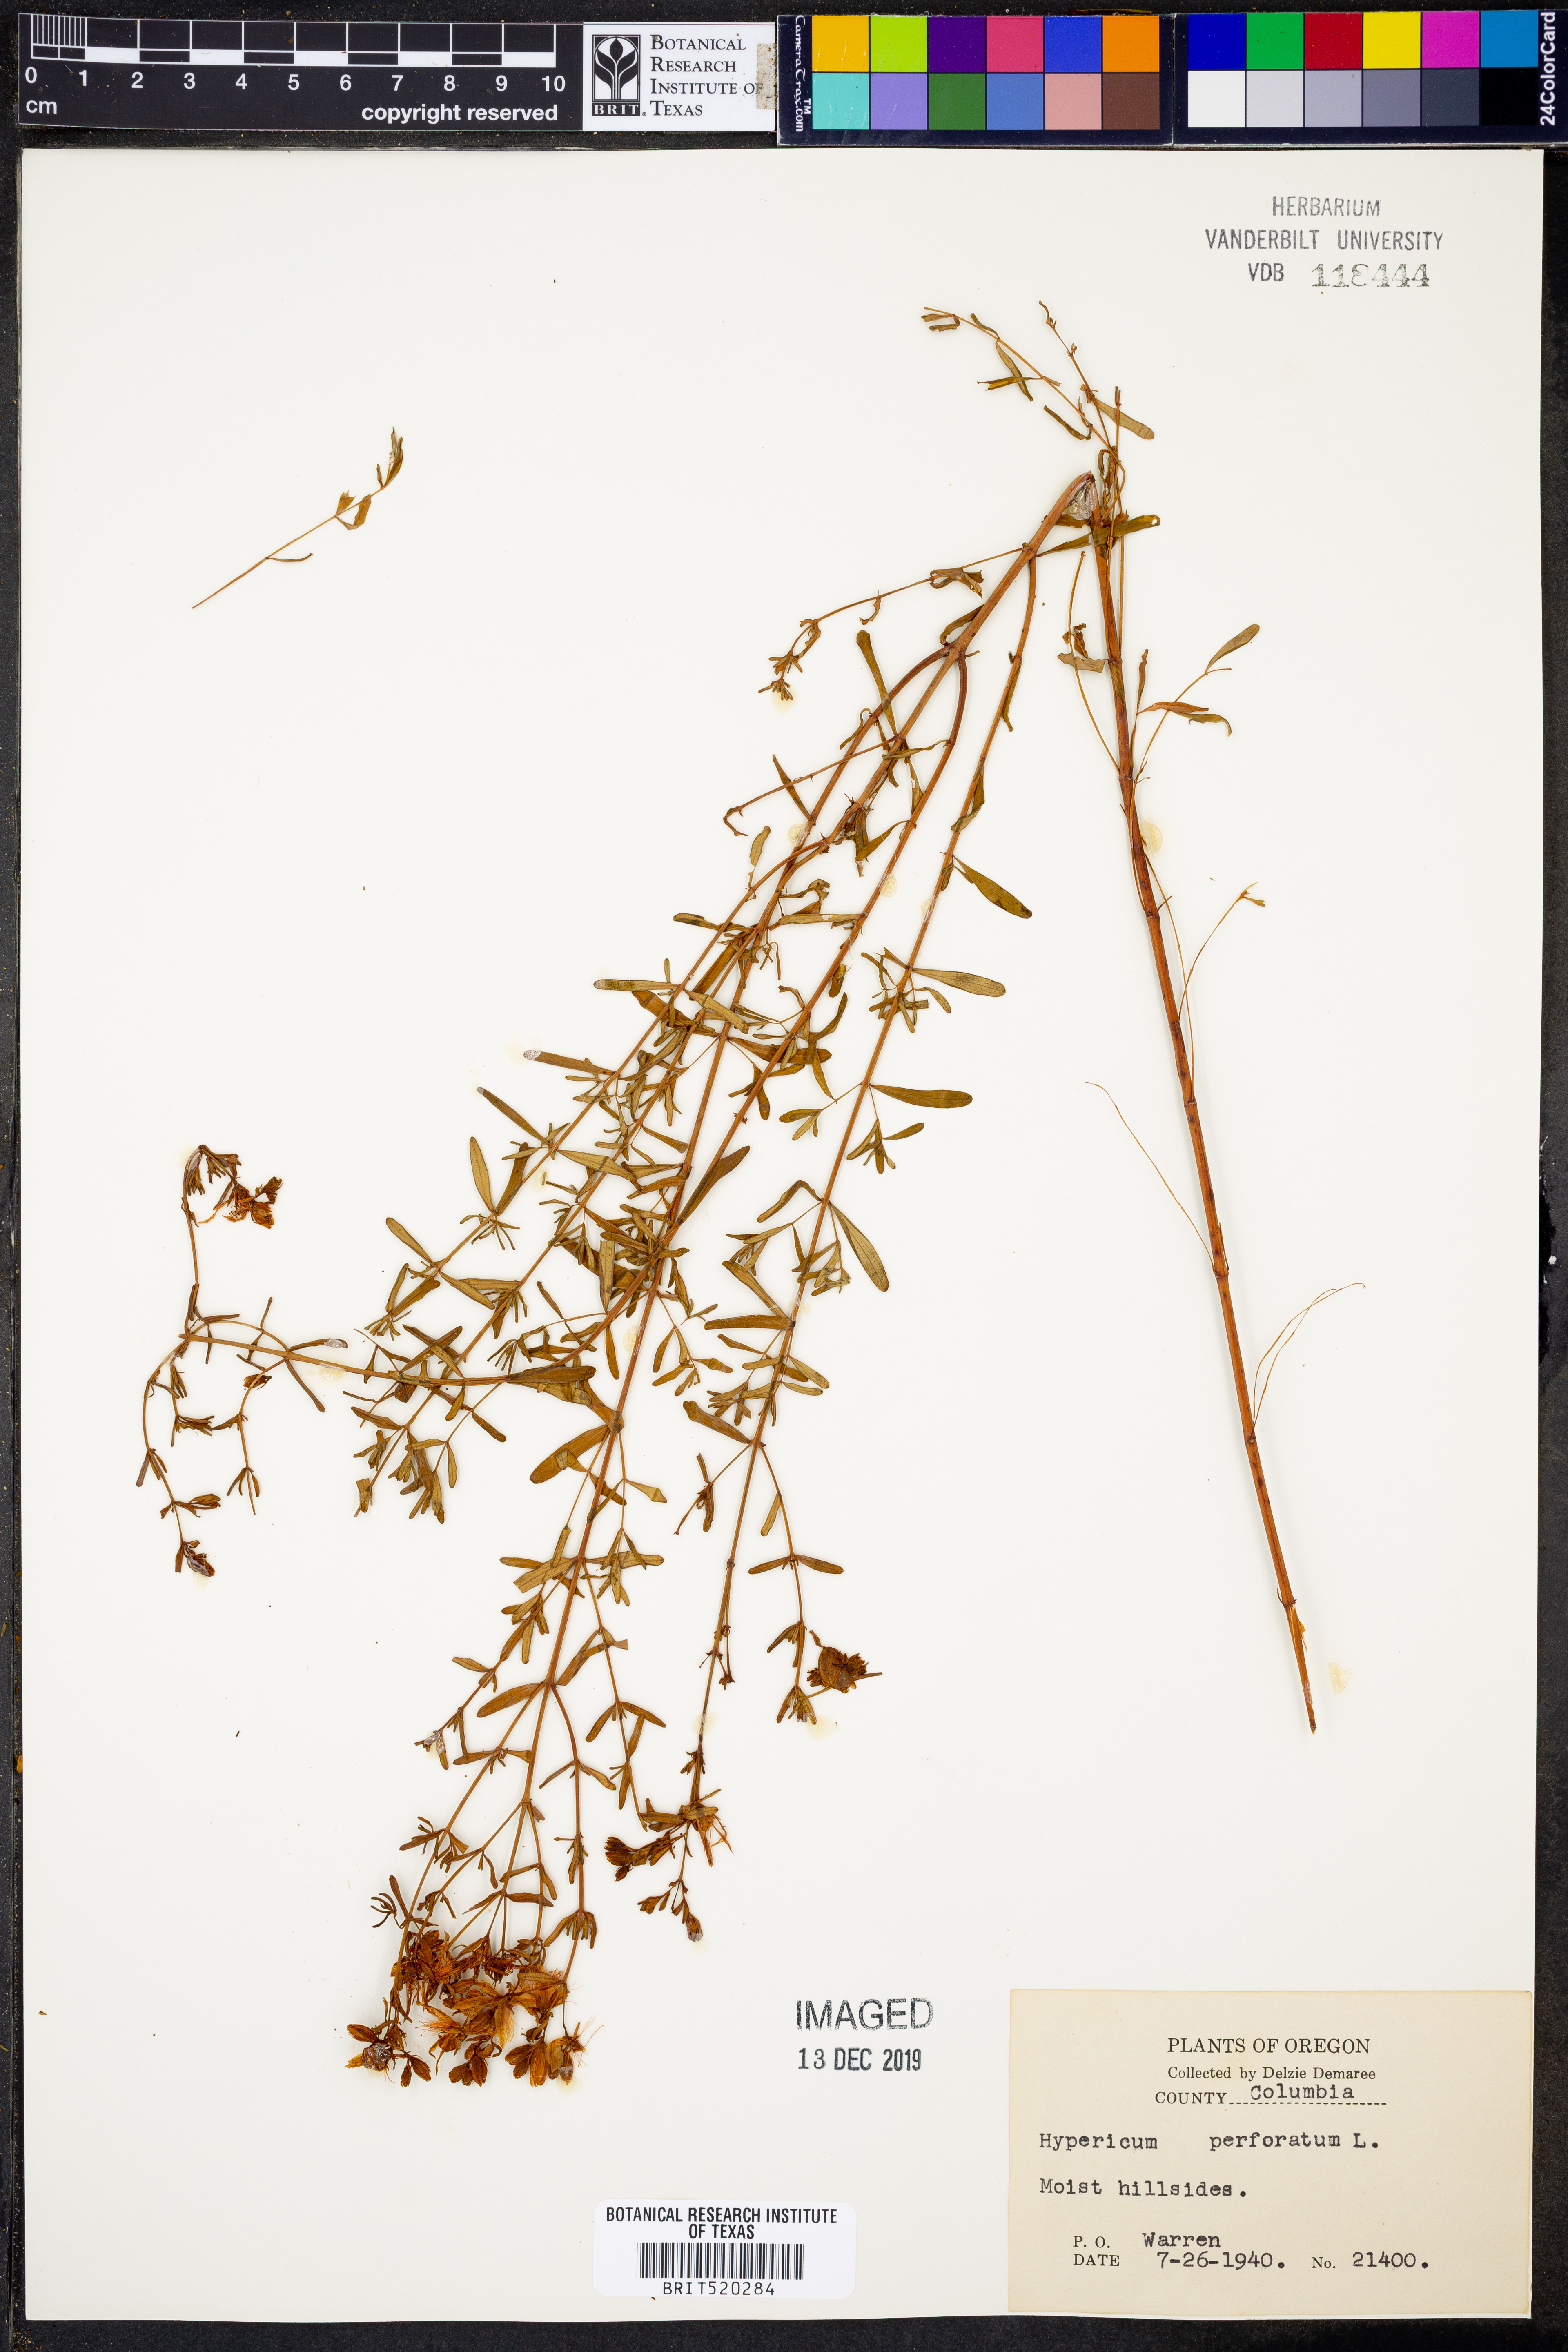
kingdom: Plantae
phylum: Tracheophyta
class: Magnoliopsida
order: Malpighiales
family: Hypericaceae
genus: Hypericum
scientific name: Hypericum perforatum
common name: Common st. johnswort
